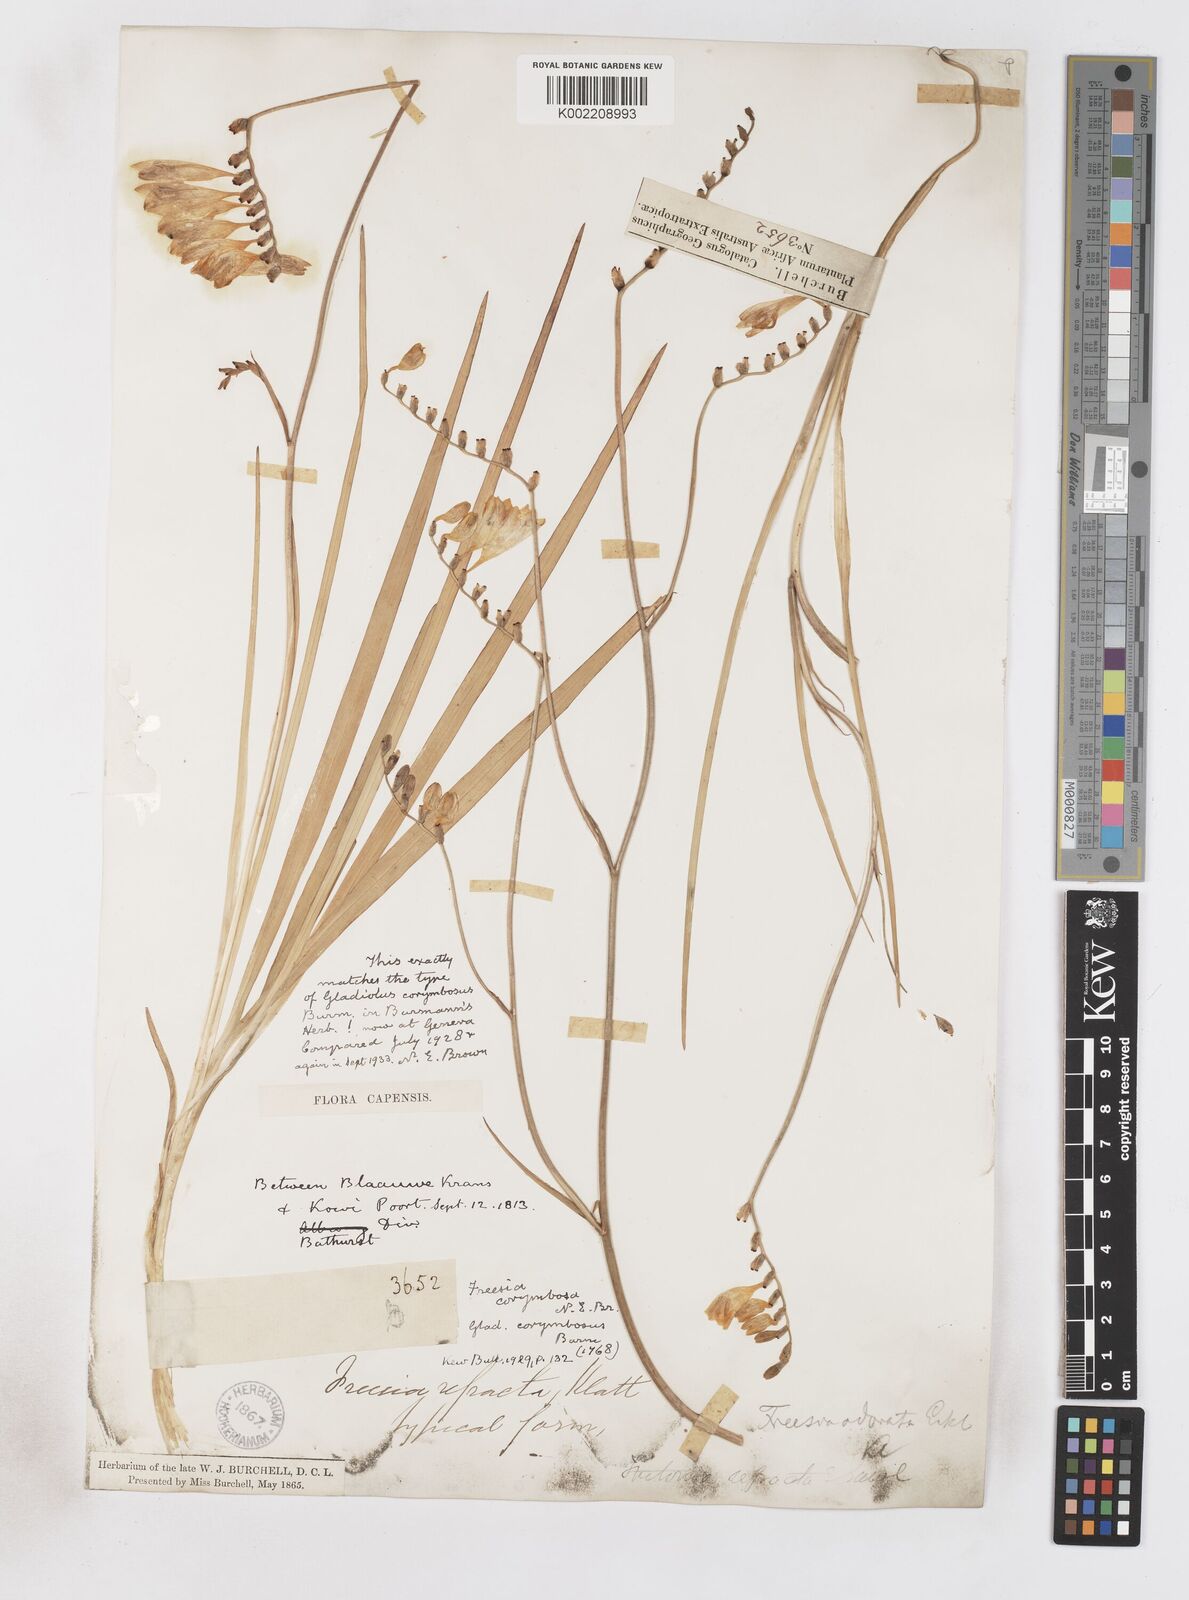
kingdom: Plantae
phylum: Tracheophyta
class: Liliopsida
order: Asparagales
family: Iridaceae
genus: Freesia
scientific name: Freesia corymbosa
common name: Common freesia
